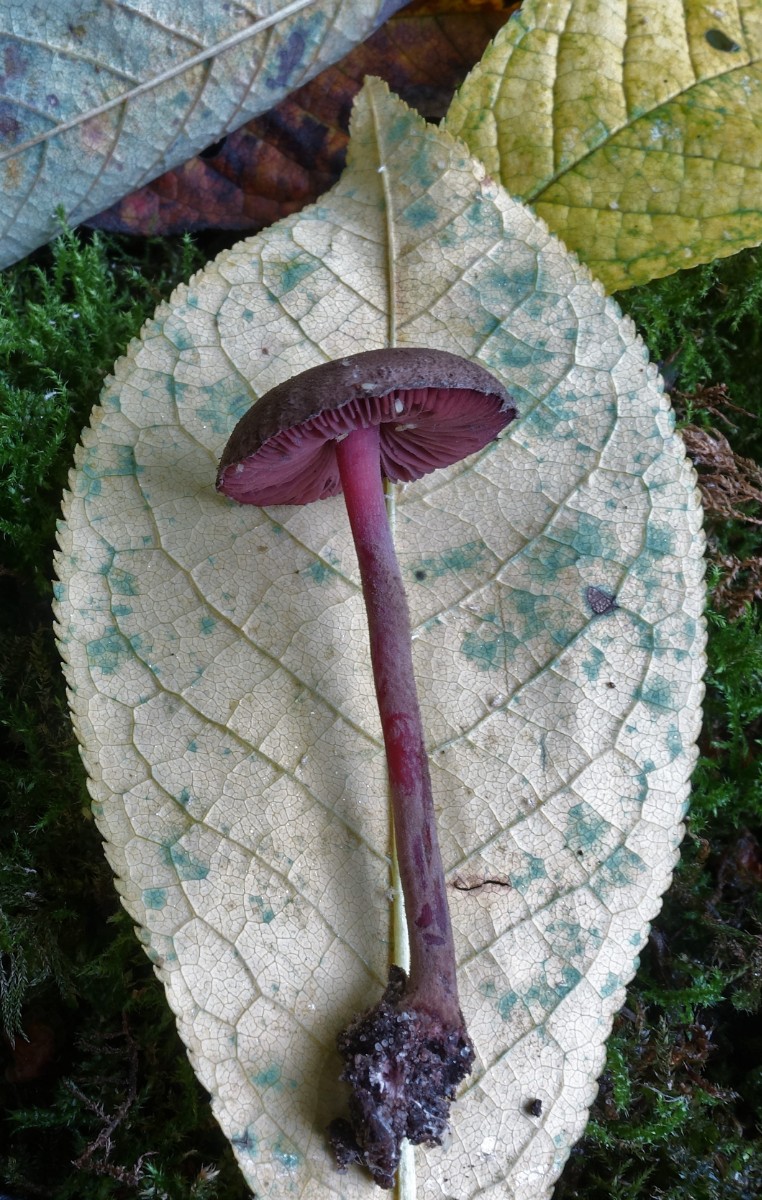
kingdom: Fungi
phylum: Basidiomycota
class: Agaricomycetes
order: Agaricales
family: Agaricaceae
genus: Melanophyllum
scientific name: Melanophyllum haematospermum
